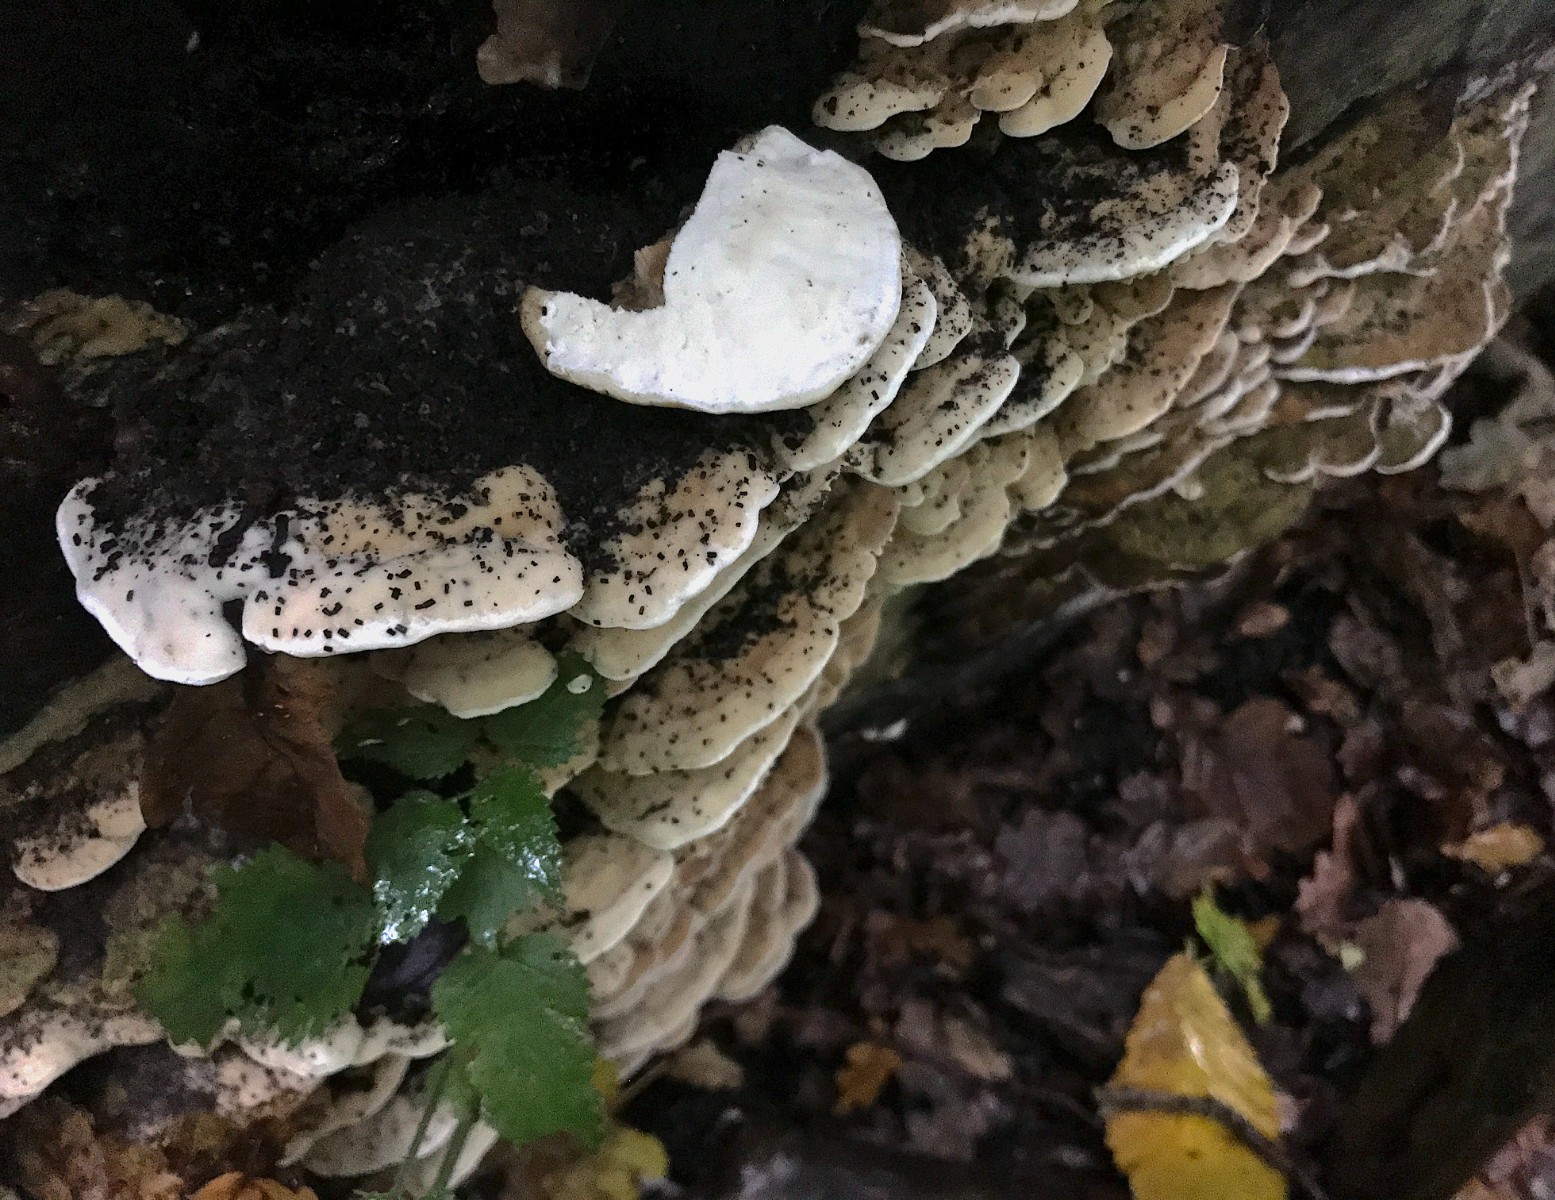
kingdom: Fungi
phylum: Basidiomycota
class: Agaricomycetes
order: Hymenochaetales
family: Oxyporaceae
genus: Oxyporus
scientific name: Oxyporus populinus
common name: sammenvokset trylleporesvamp
